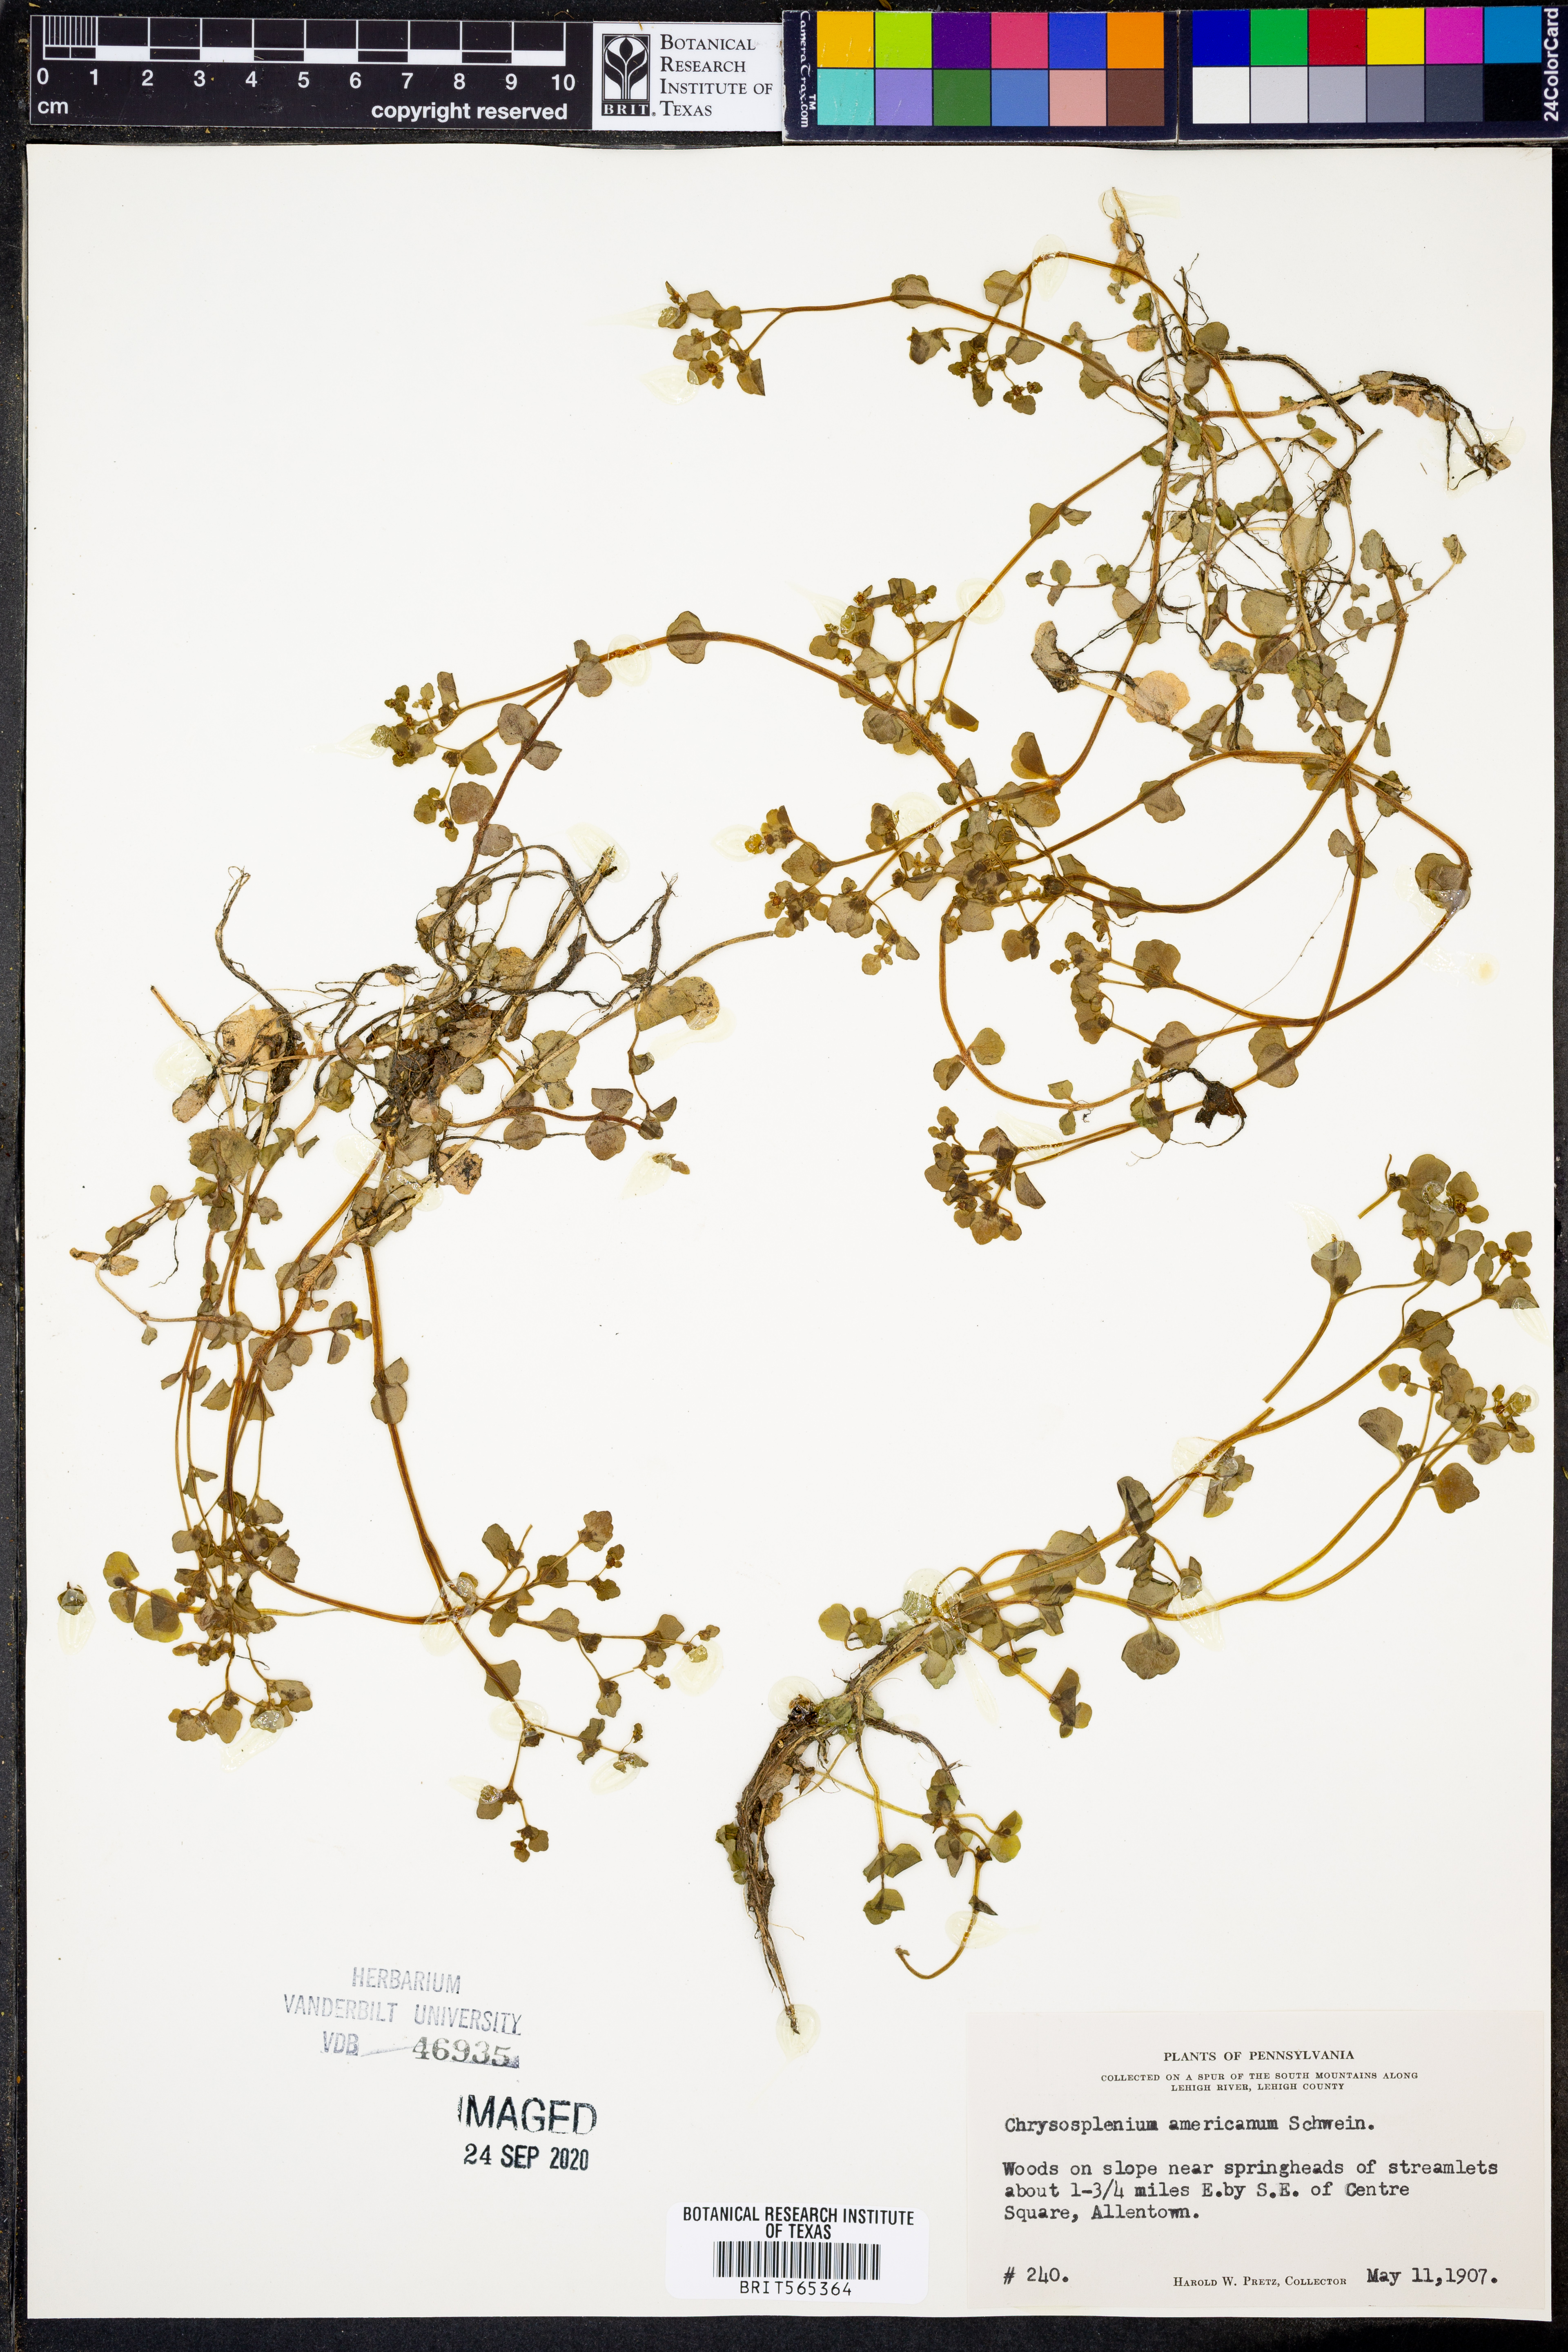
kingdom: Plantae
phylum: Tracheophyta
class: Magnoliopsida
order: Saxifragales
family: Saxifragaceae
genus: Chrysosplenium
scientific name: Chrysosplenium americanum
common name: American golden-saxifrage
